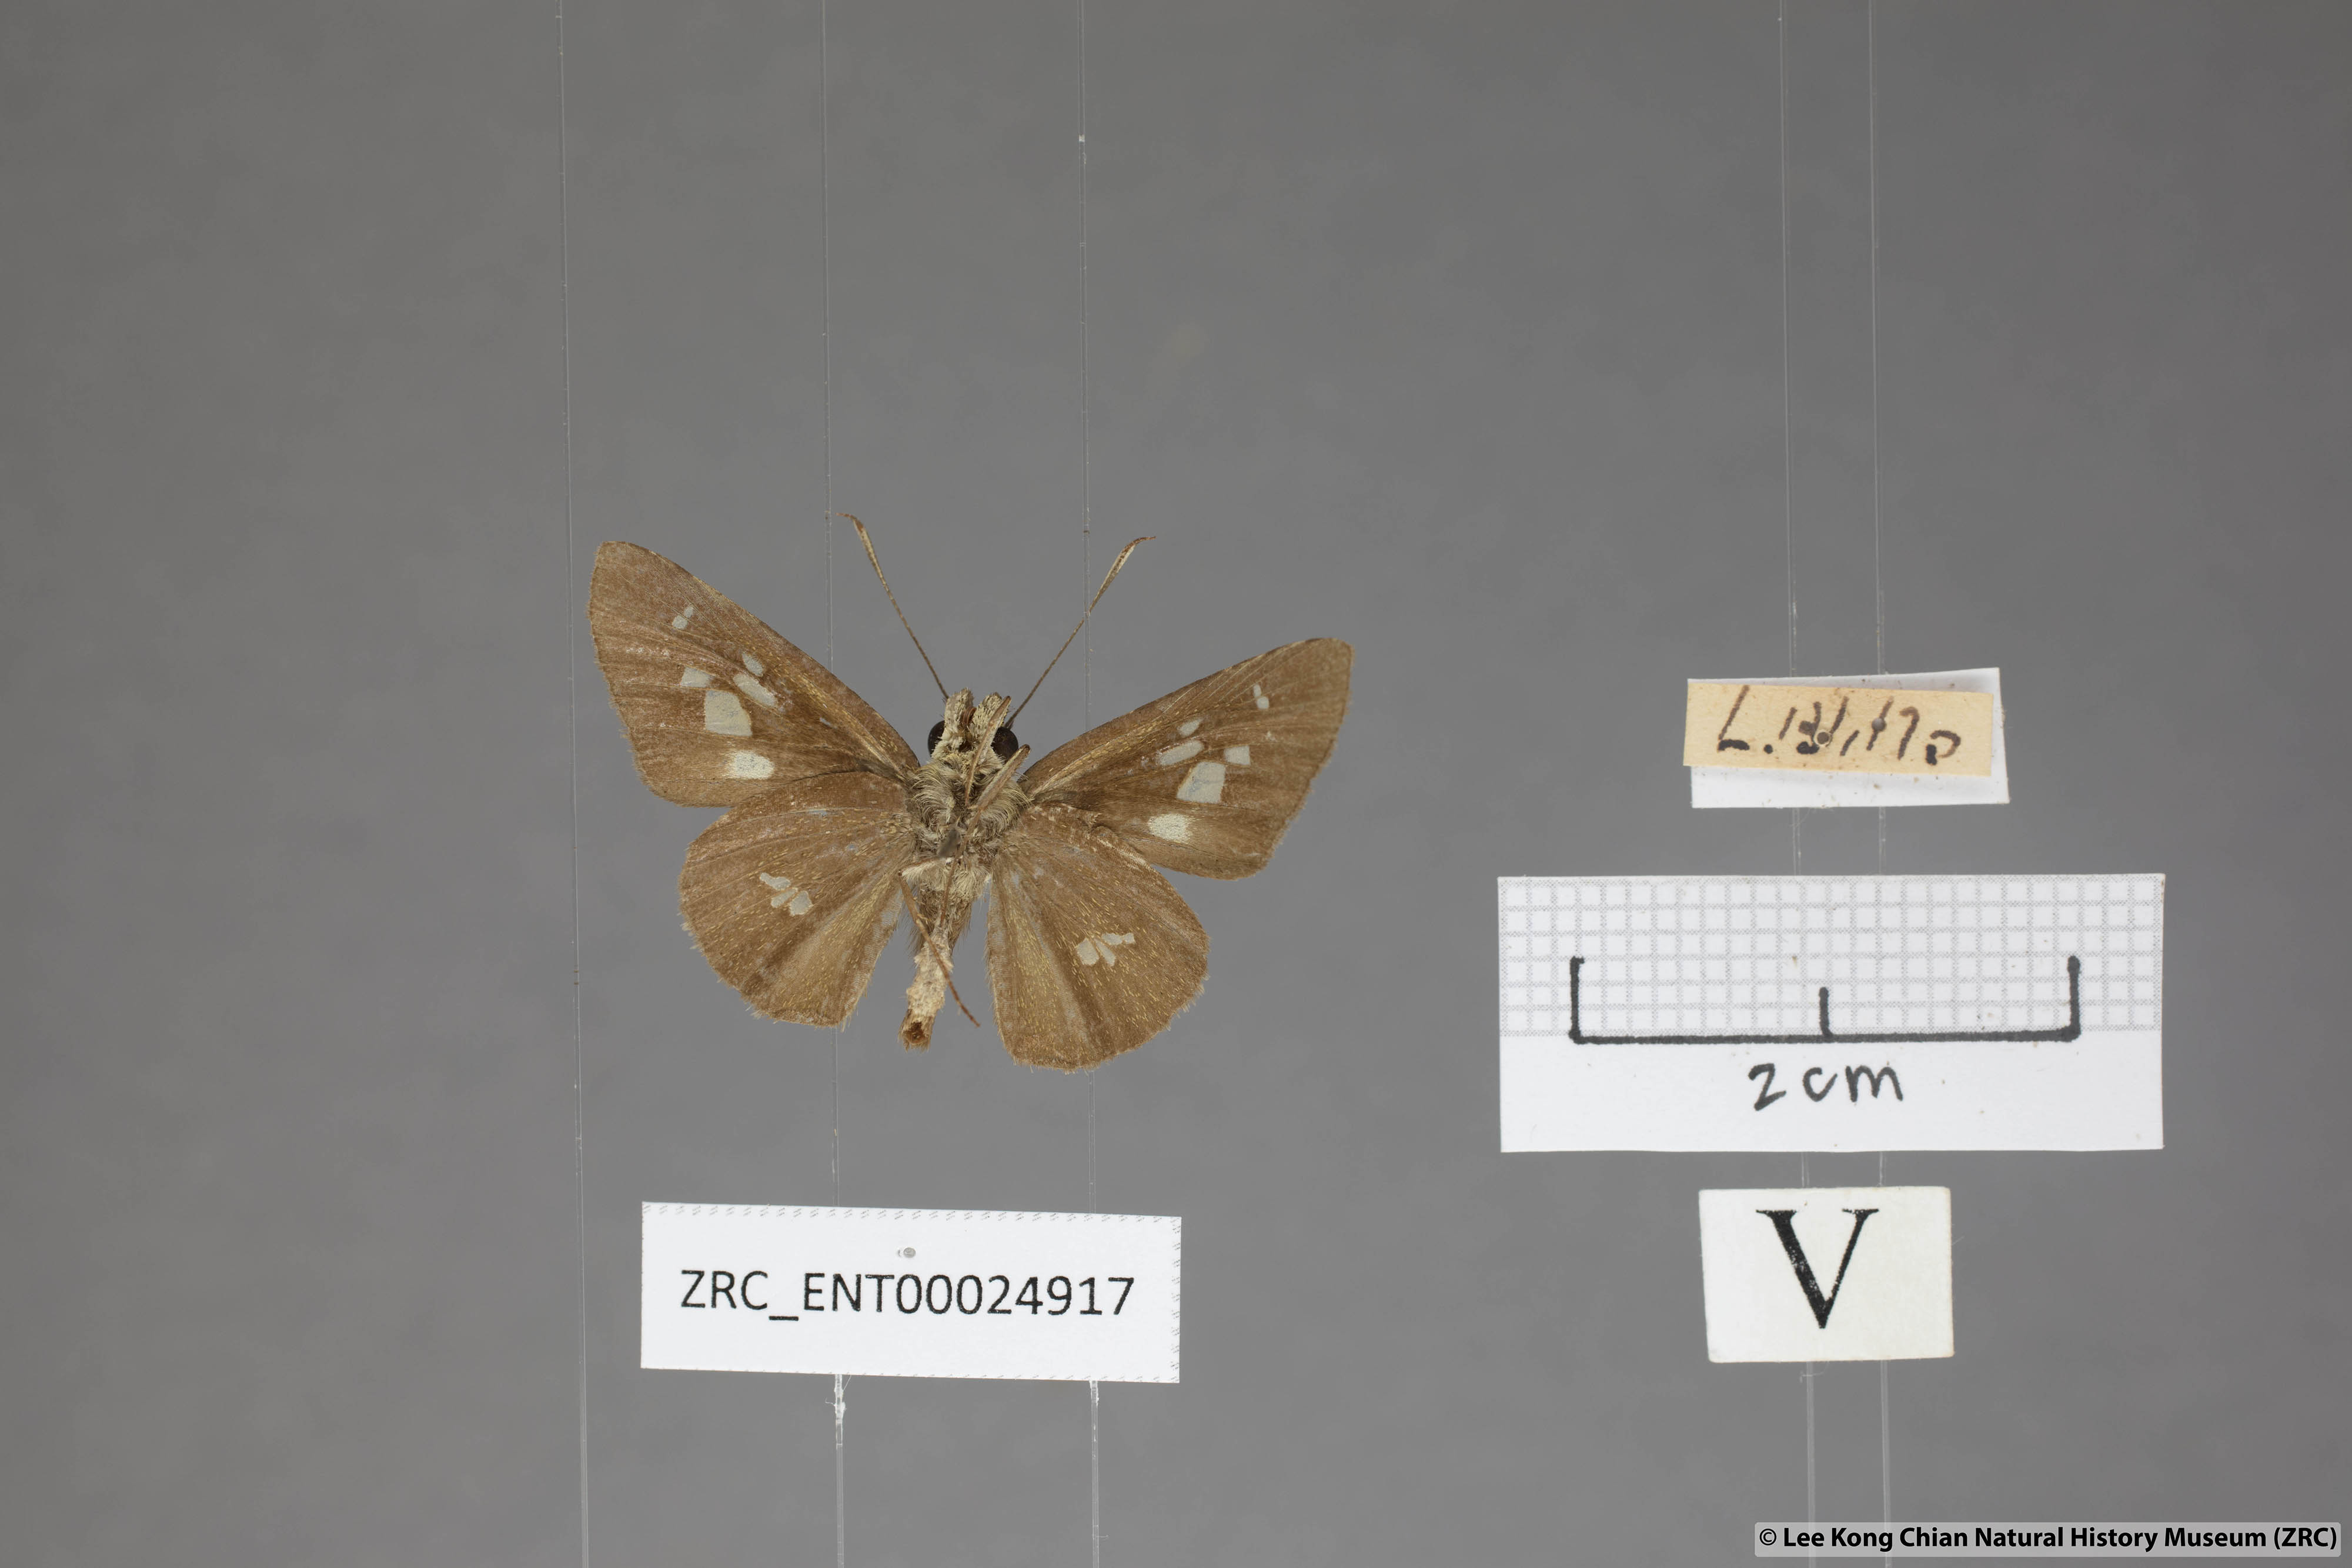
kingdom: Animalia
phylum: Arthropoda
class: Insecta
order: Lepidoptera
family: Hesperiidae
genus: Isma
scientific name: Isma umbrosa
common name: Large long-banded flitter
